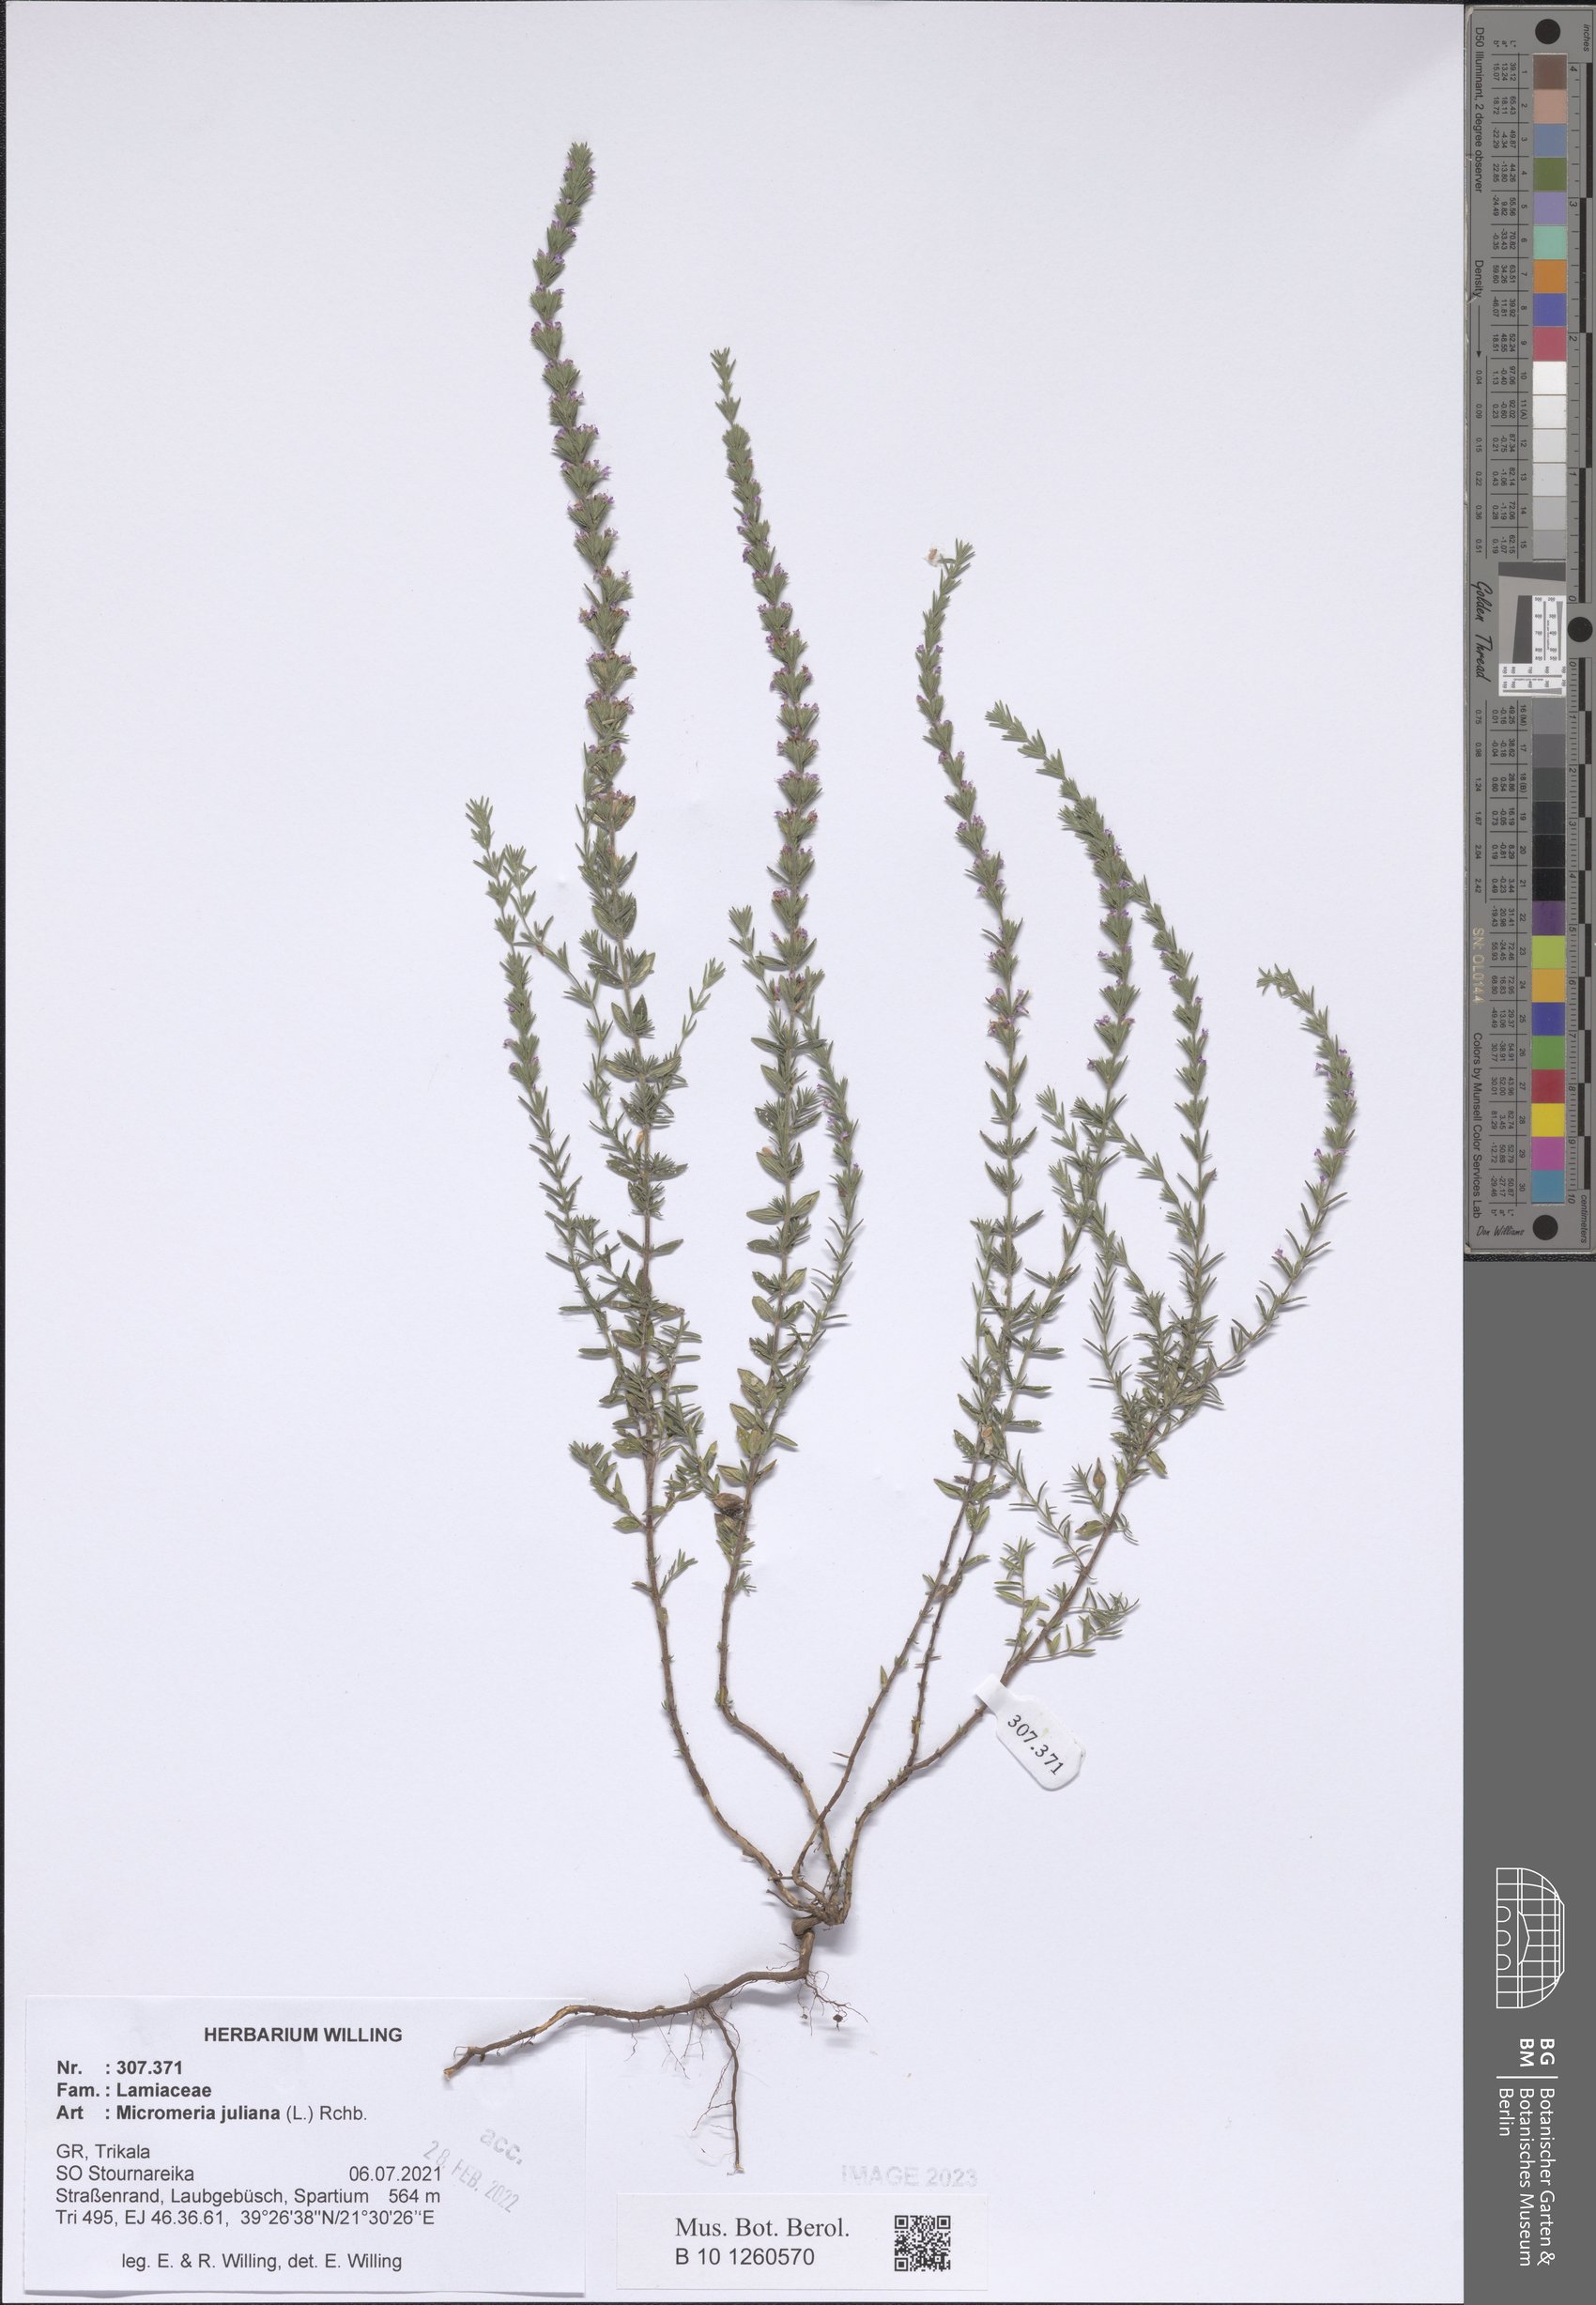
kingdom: Plantae
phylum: Tracheophyta
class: Magnoliopsida
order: Lamiales
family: Lamiaceae
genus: Micromeria
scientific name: Micromeria juliana
